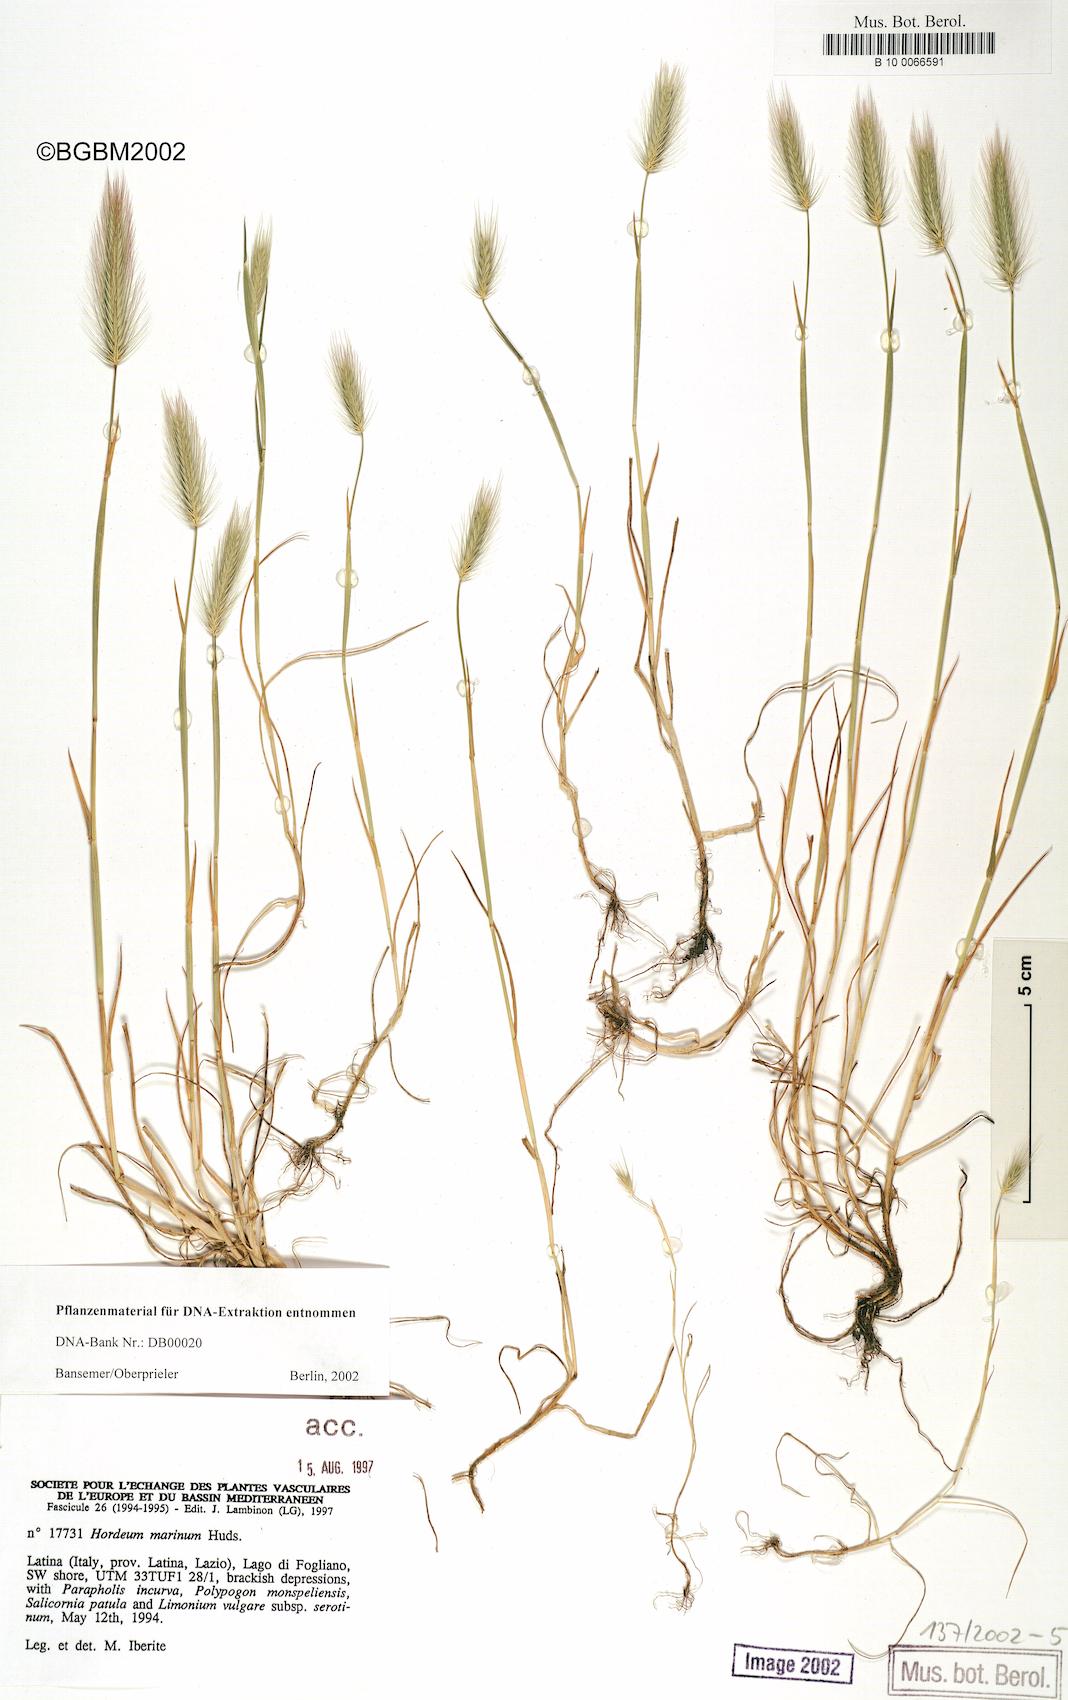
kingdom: Plantae
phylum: Tracheophyta
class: Liliopsida
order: Poales
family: Poaceae
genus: Hordeum
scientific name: Hordeum marinum
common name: Sea barley
